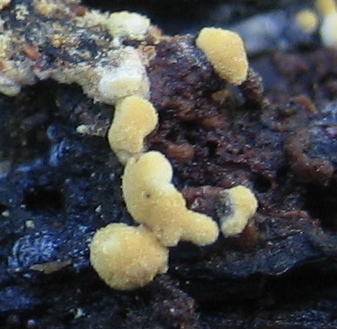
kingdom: Fungi
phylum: Basidiomycota
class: Agaricomycetes
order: Cantharellales
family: Botryobasidiaceae
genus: Botryobasidium
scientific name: Botryobasidium aureum
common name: gylden spindhinde
